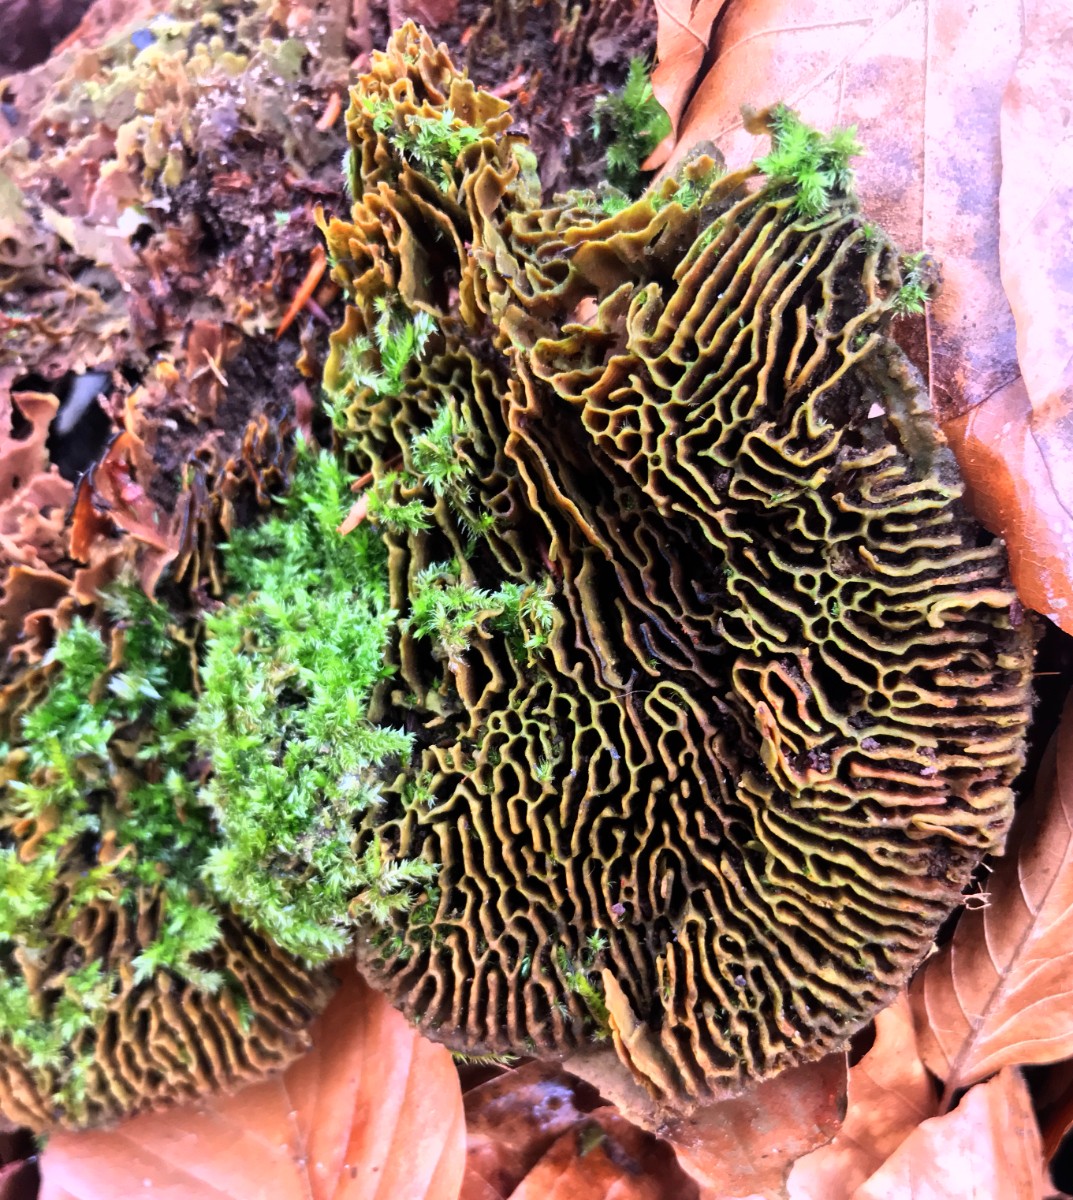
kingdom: Fungi
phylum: Basidiomycota
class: Agaricomycetes
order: Polyporales
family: Fomitopsidaceae
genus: Daedalea
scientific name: Daedalea quercina
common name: ege-labyrintsvamp
